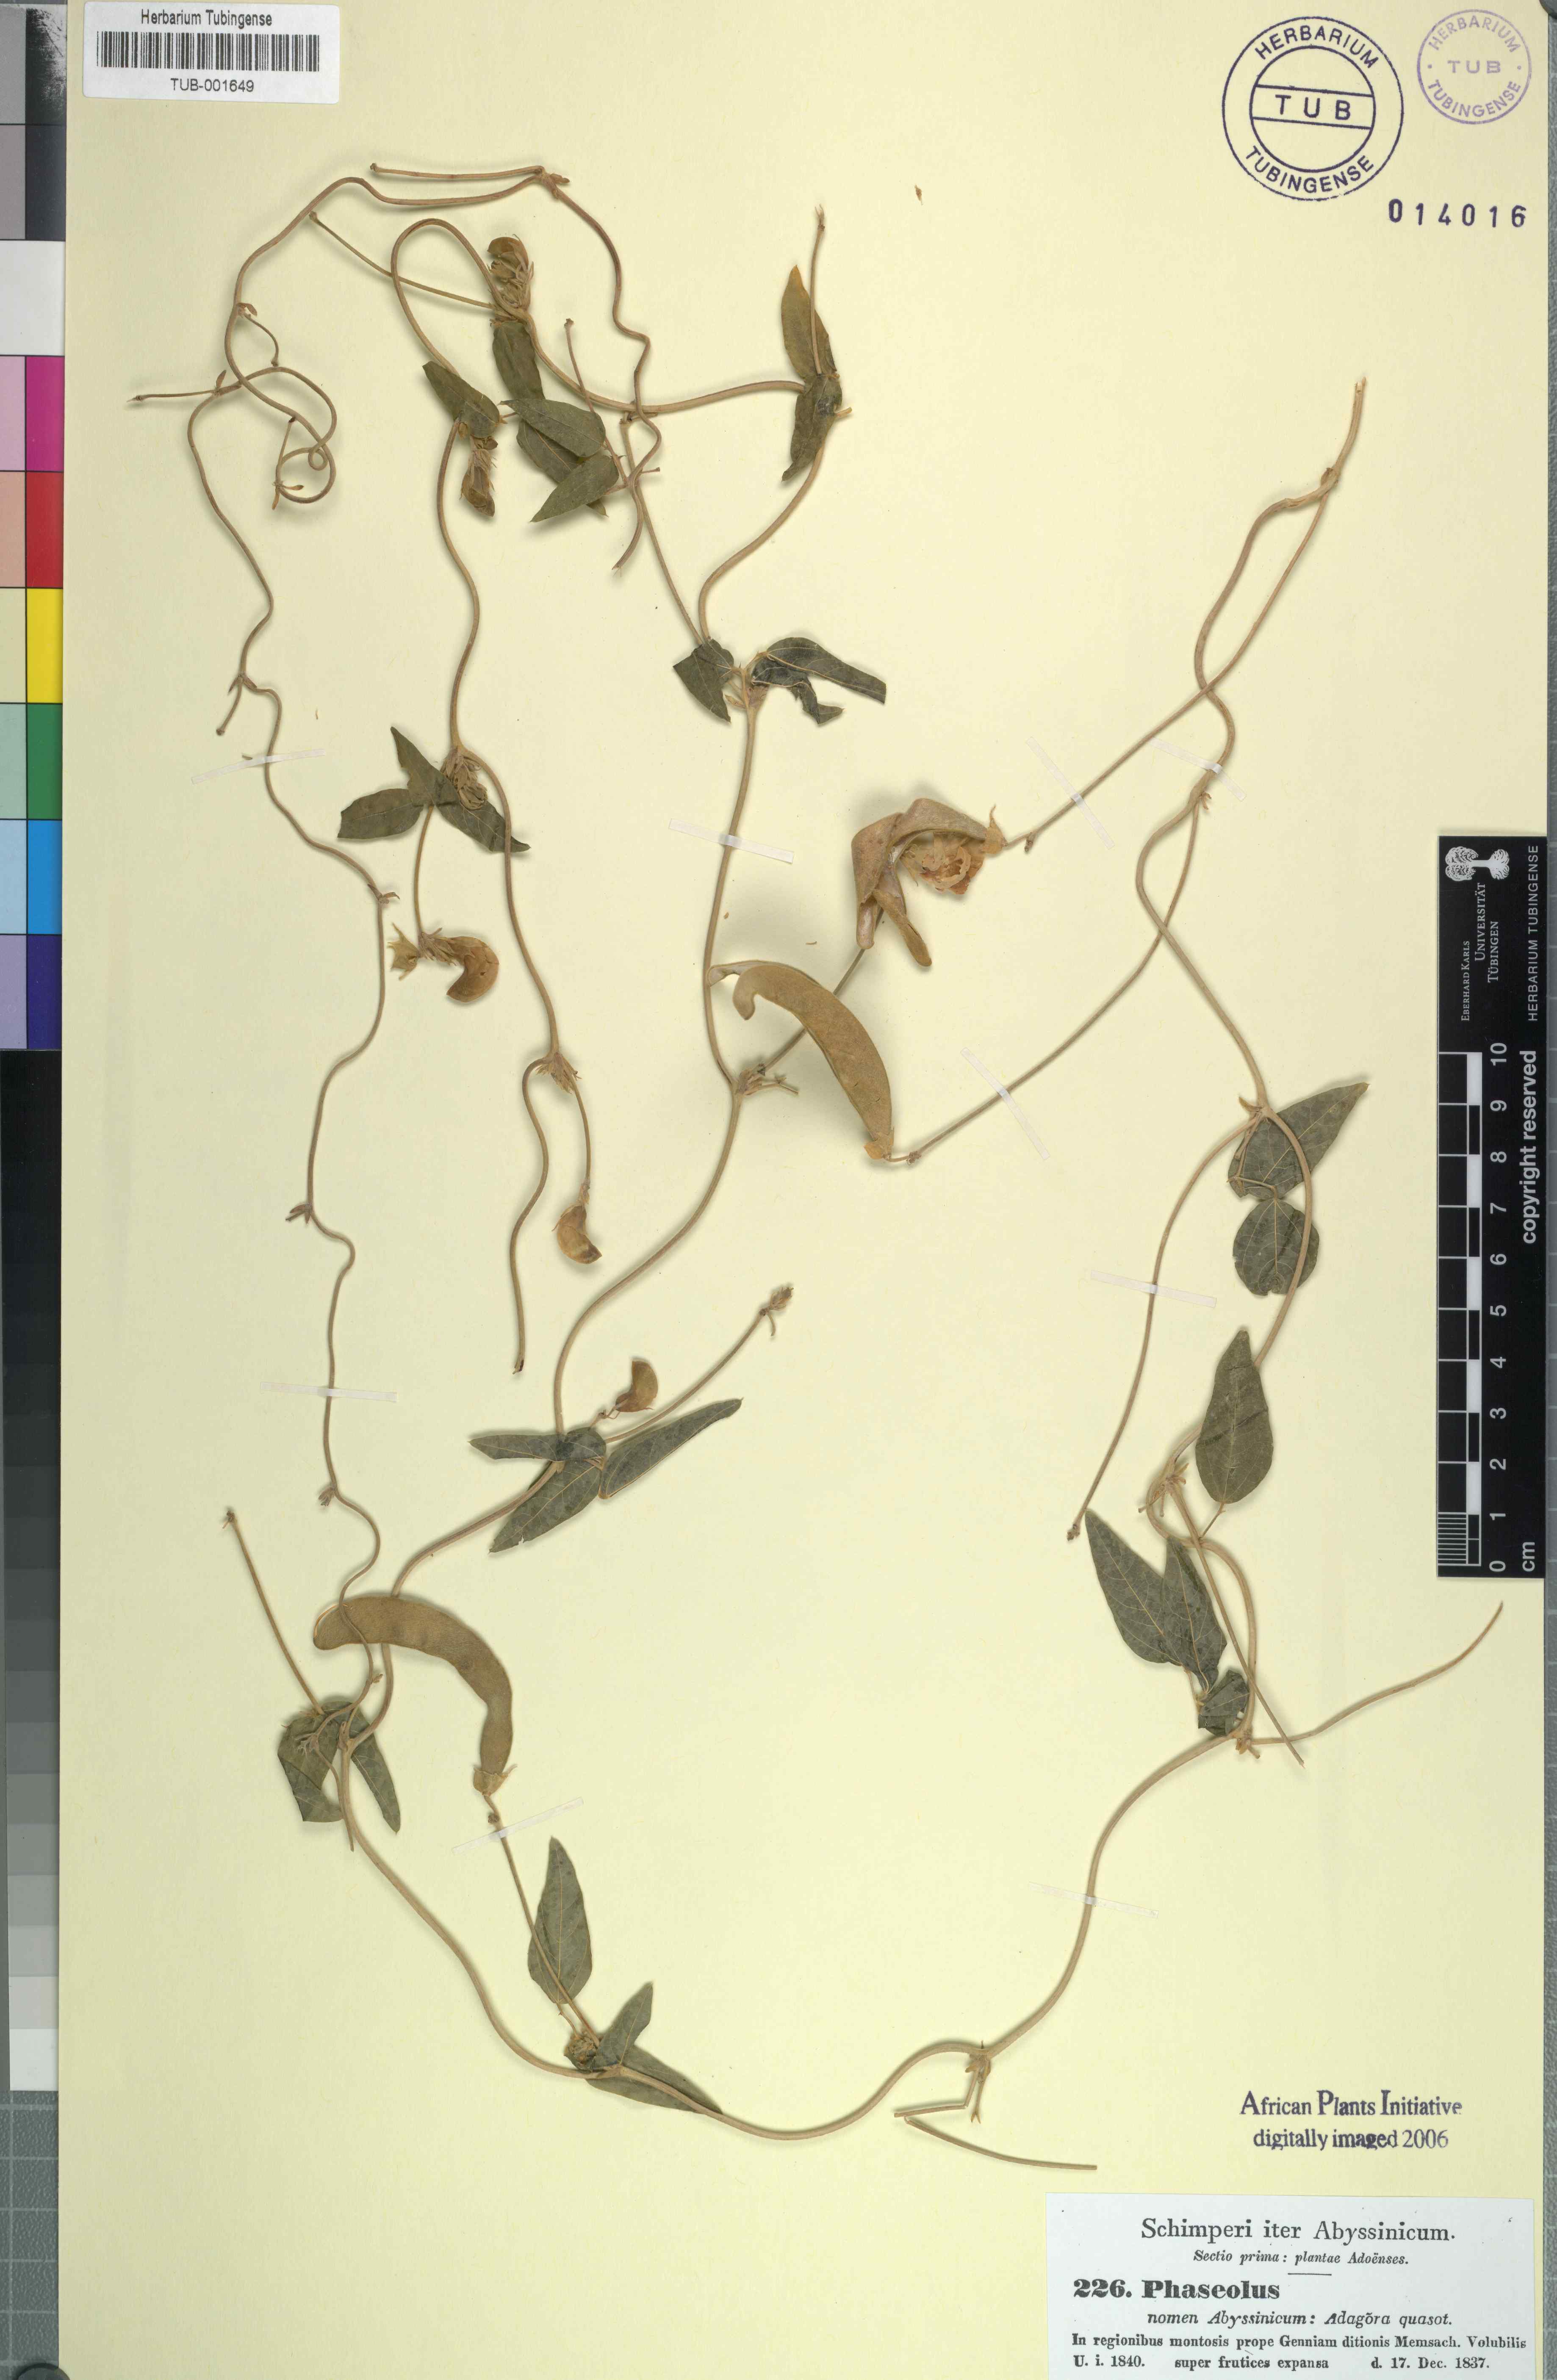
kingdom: Plantae
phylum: Tracheophyta
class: Magnoliopsida
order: Fabales
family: Fabaceae
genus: Phaseolus
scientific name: Phaseolus
